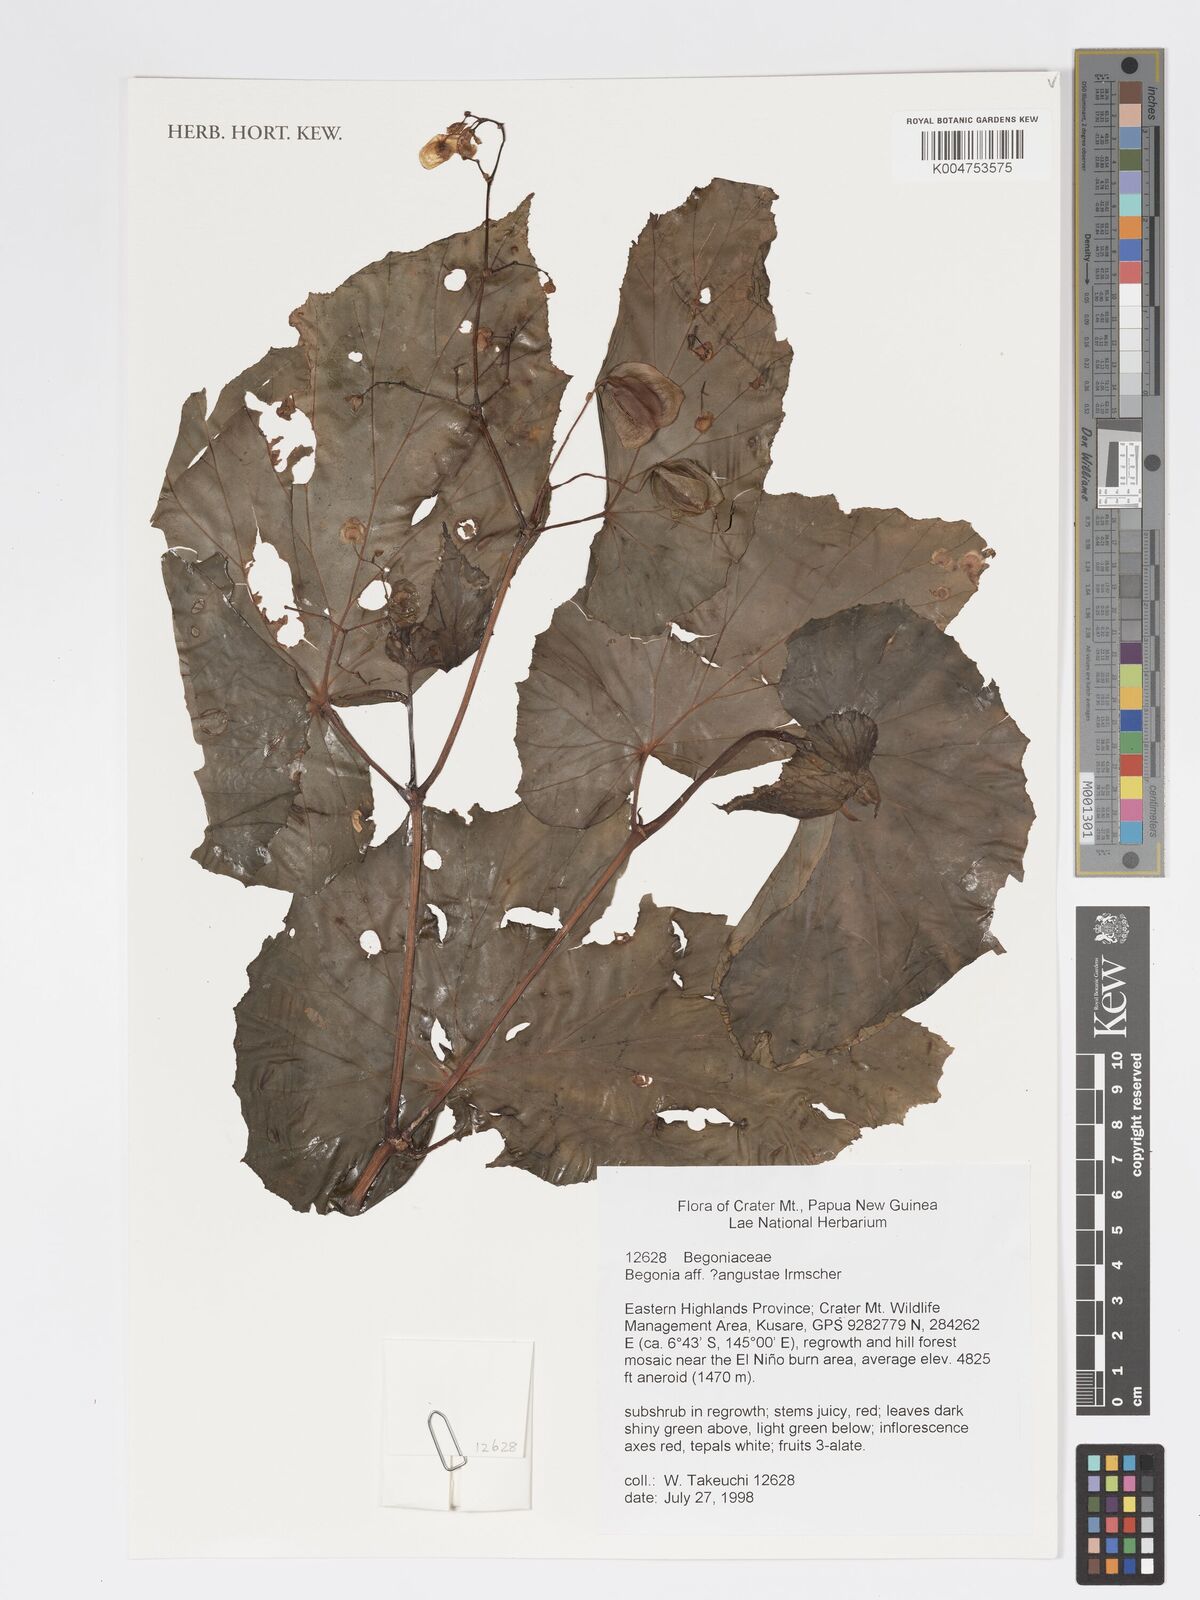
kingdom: Plantae
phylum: Tracheophyta
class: Magnoliopsida
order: Cucurbitales
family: Begoniaceae
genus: Begonia
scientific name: Begonia augustae
